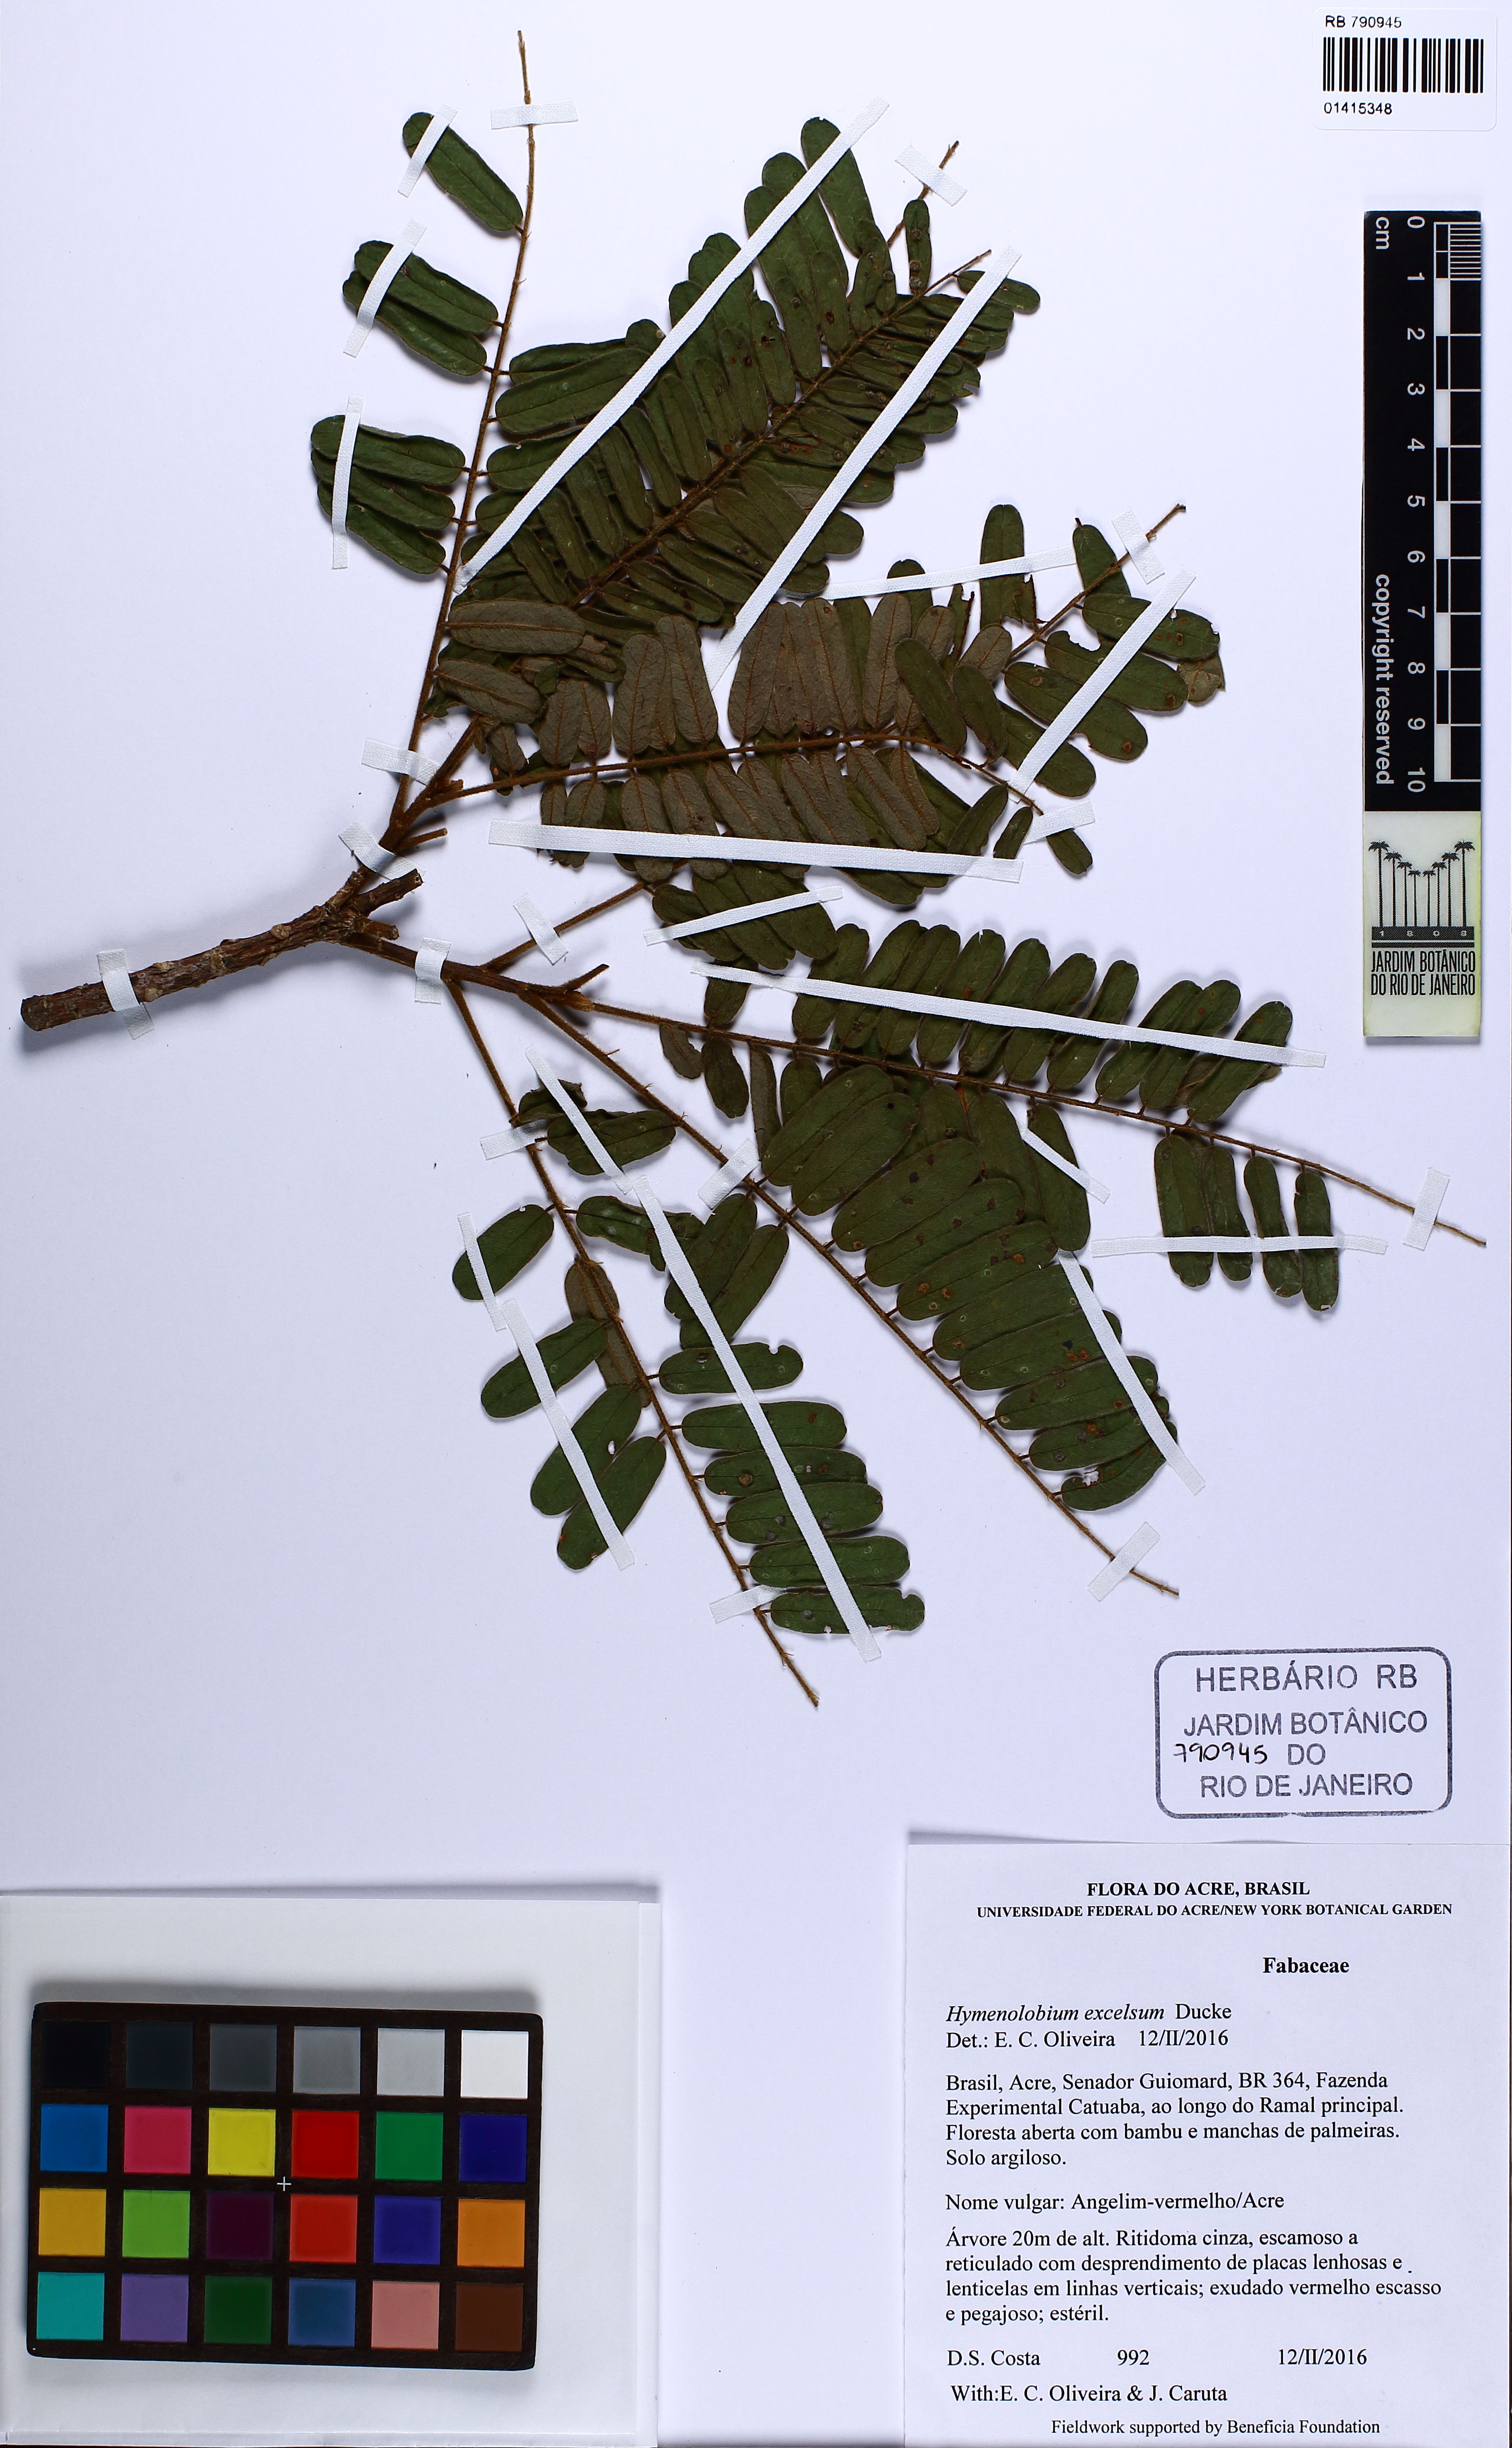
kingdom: Plantae
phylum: Tracheophyta
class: Magnoliopsida
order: Fabales
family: Fabaceae
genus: Hymenolobium
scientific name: Hymenolobium excelsum
